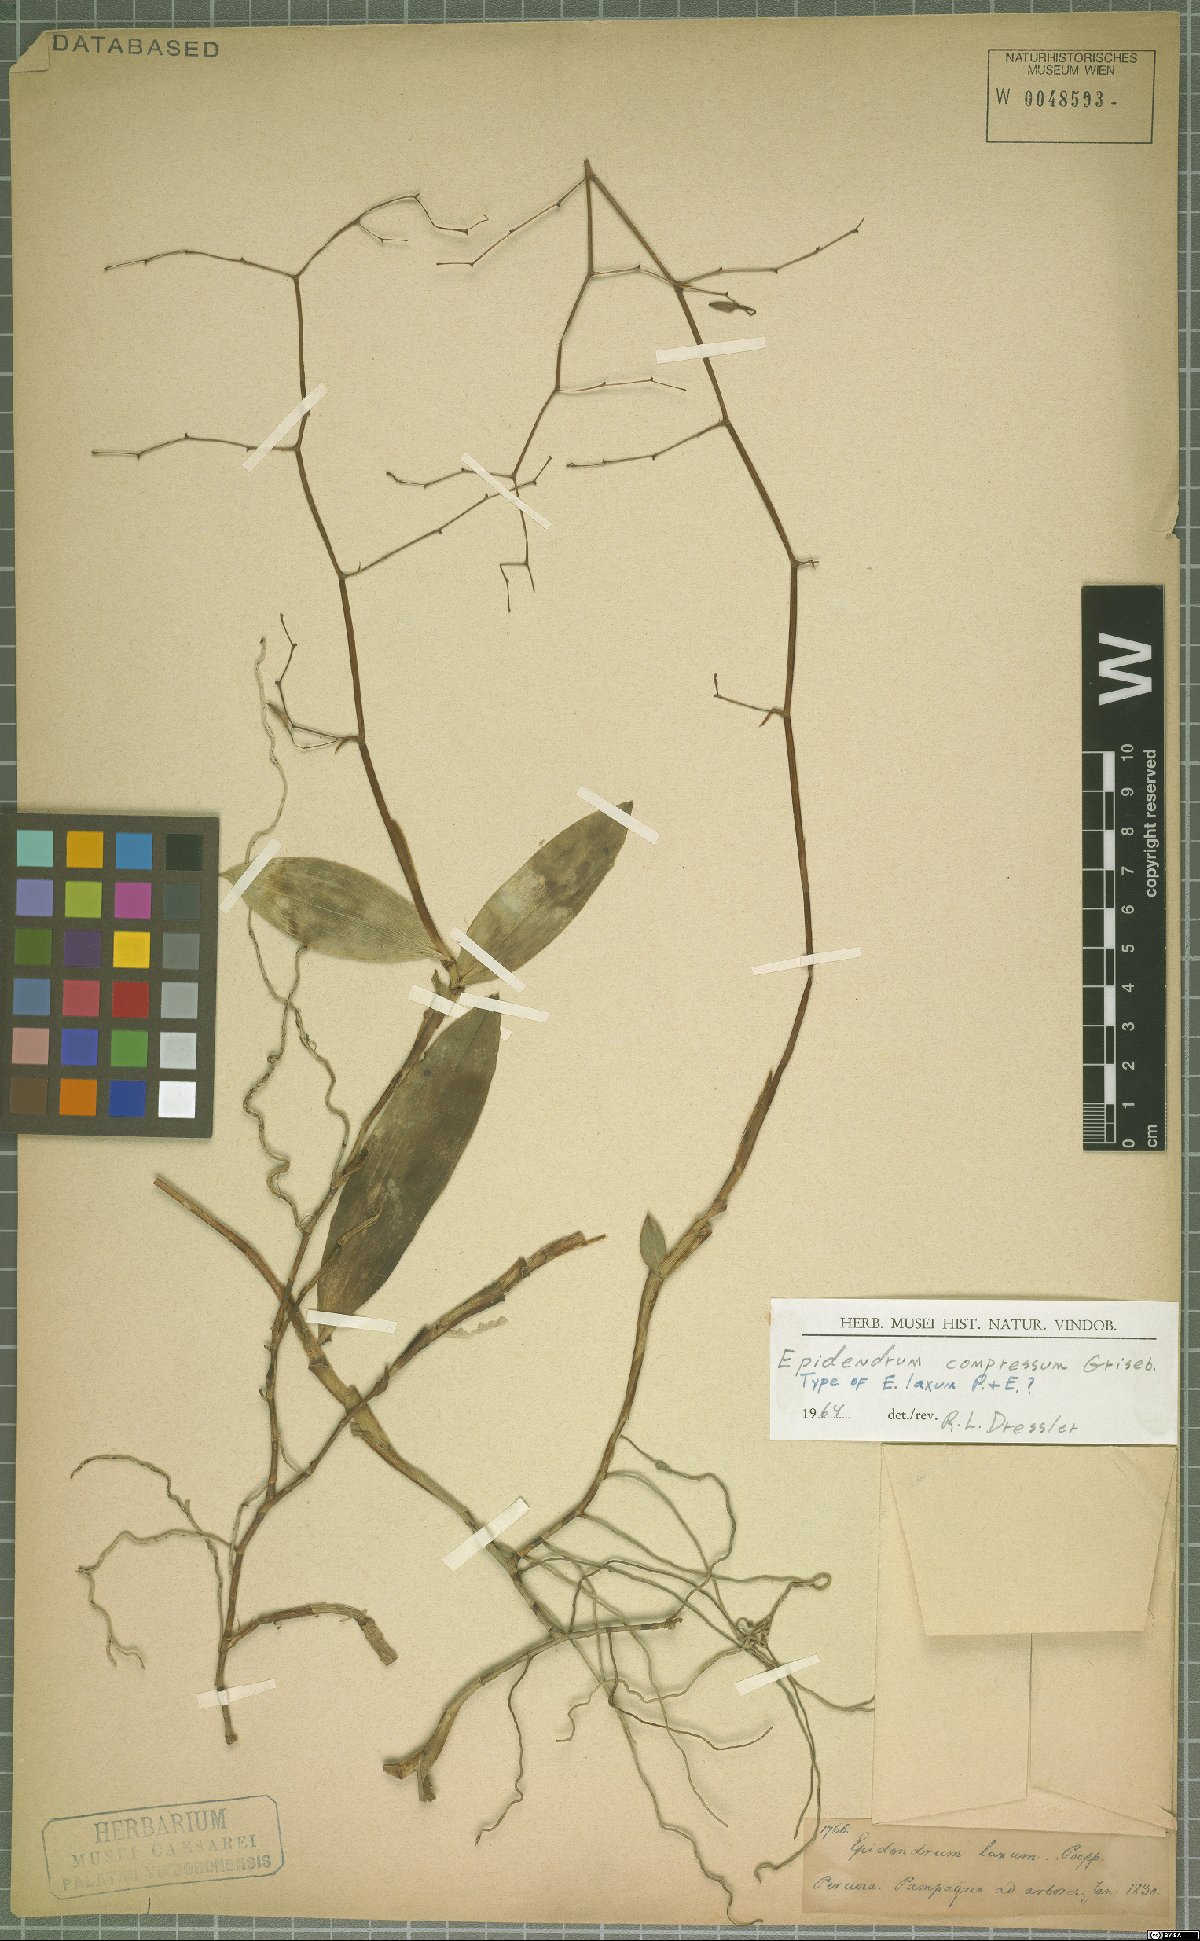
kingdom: Plantae
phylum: Tracheophyta
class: Liliopsida
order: Asparagales
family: Orchidaceae
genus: Epidendrum
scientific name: Epidendrum compressum
